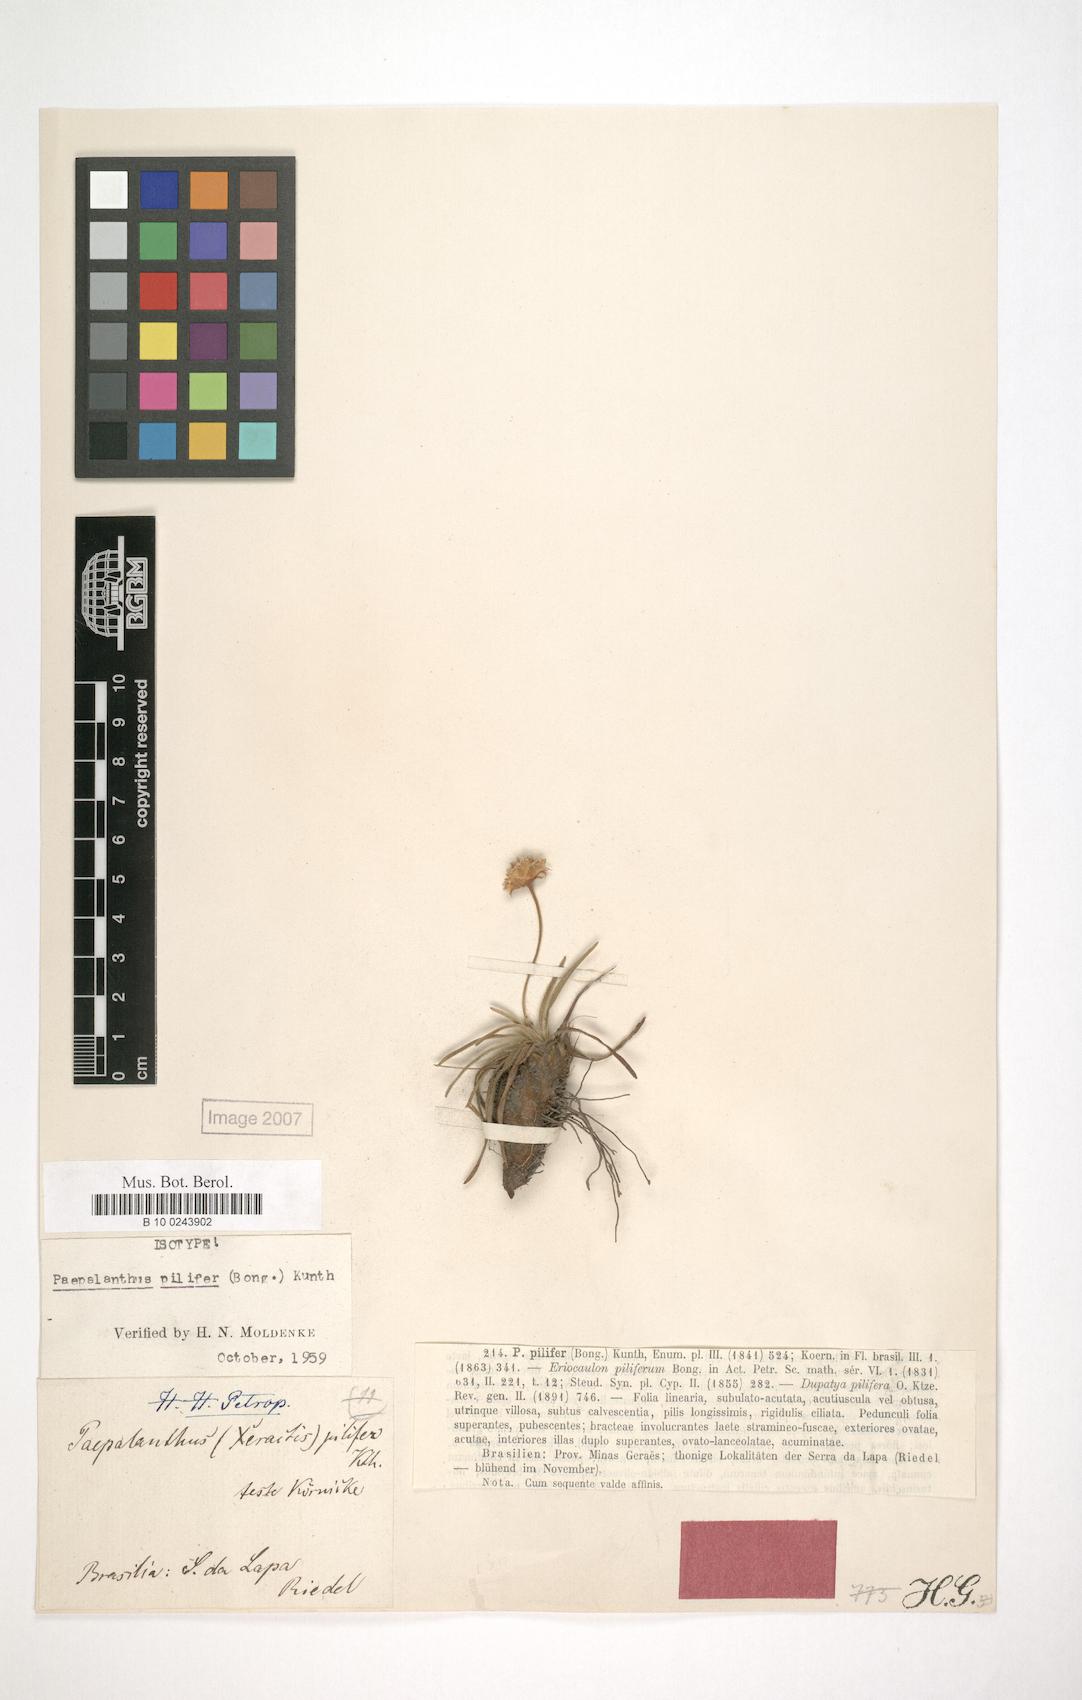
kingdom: Plantae
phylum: Tracheophyta
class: Liliopsida
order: Poales
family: Eriocaulaceae
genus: Paepalanthus
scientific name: Paepalanthus argenteus
